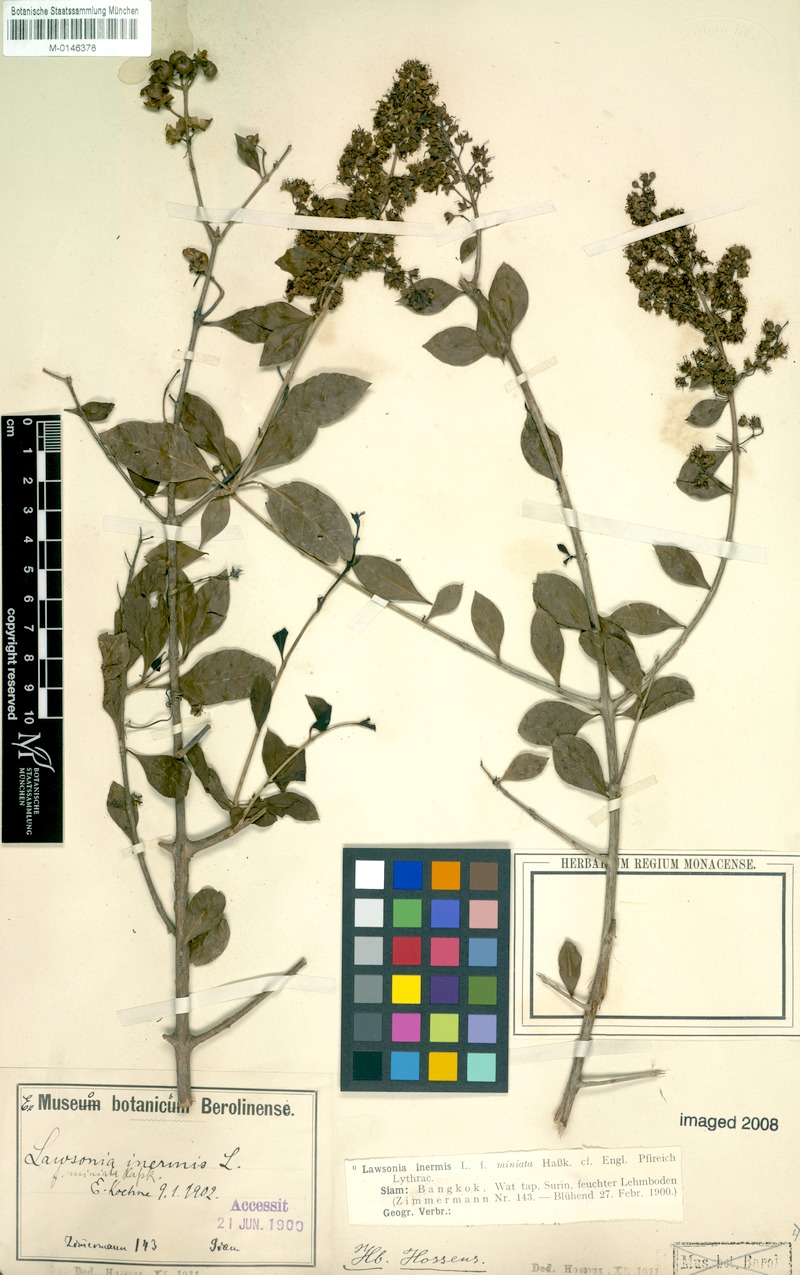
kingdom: Plantae
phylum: Tracheophyta
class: Magnoliopsida
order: Myrtales
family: Lythraceae
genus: Lawsonia
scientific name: Lawsonia inermis
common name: Henna
